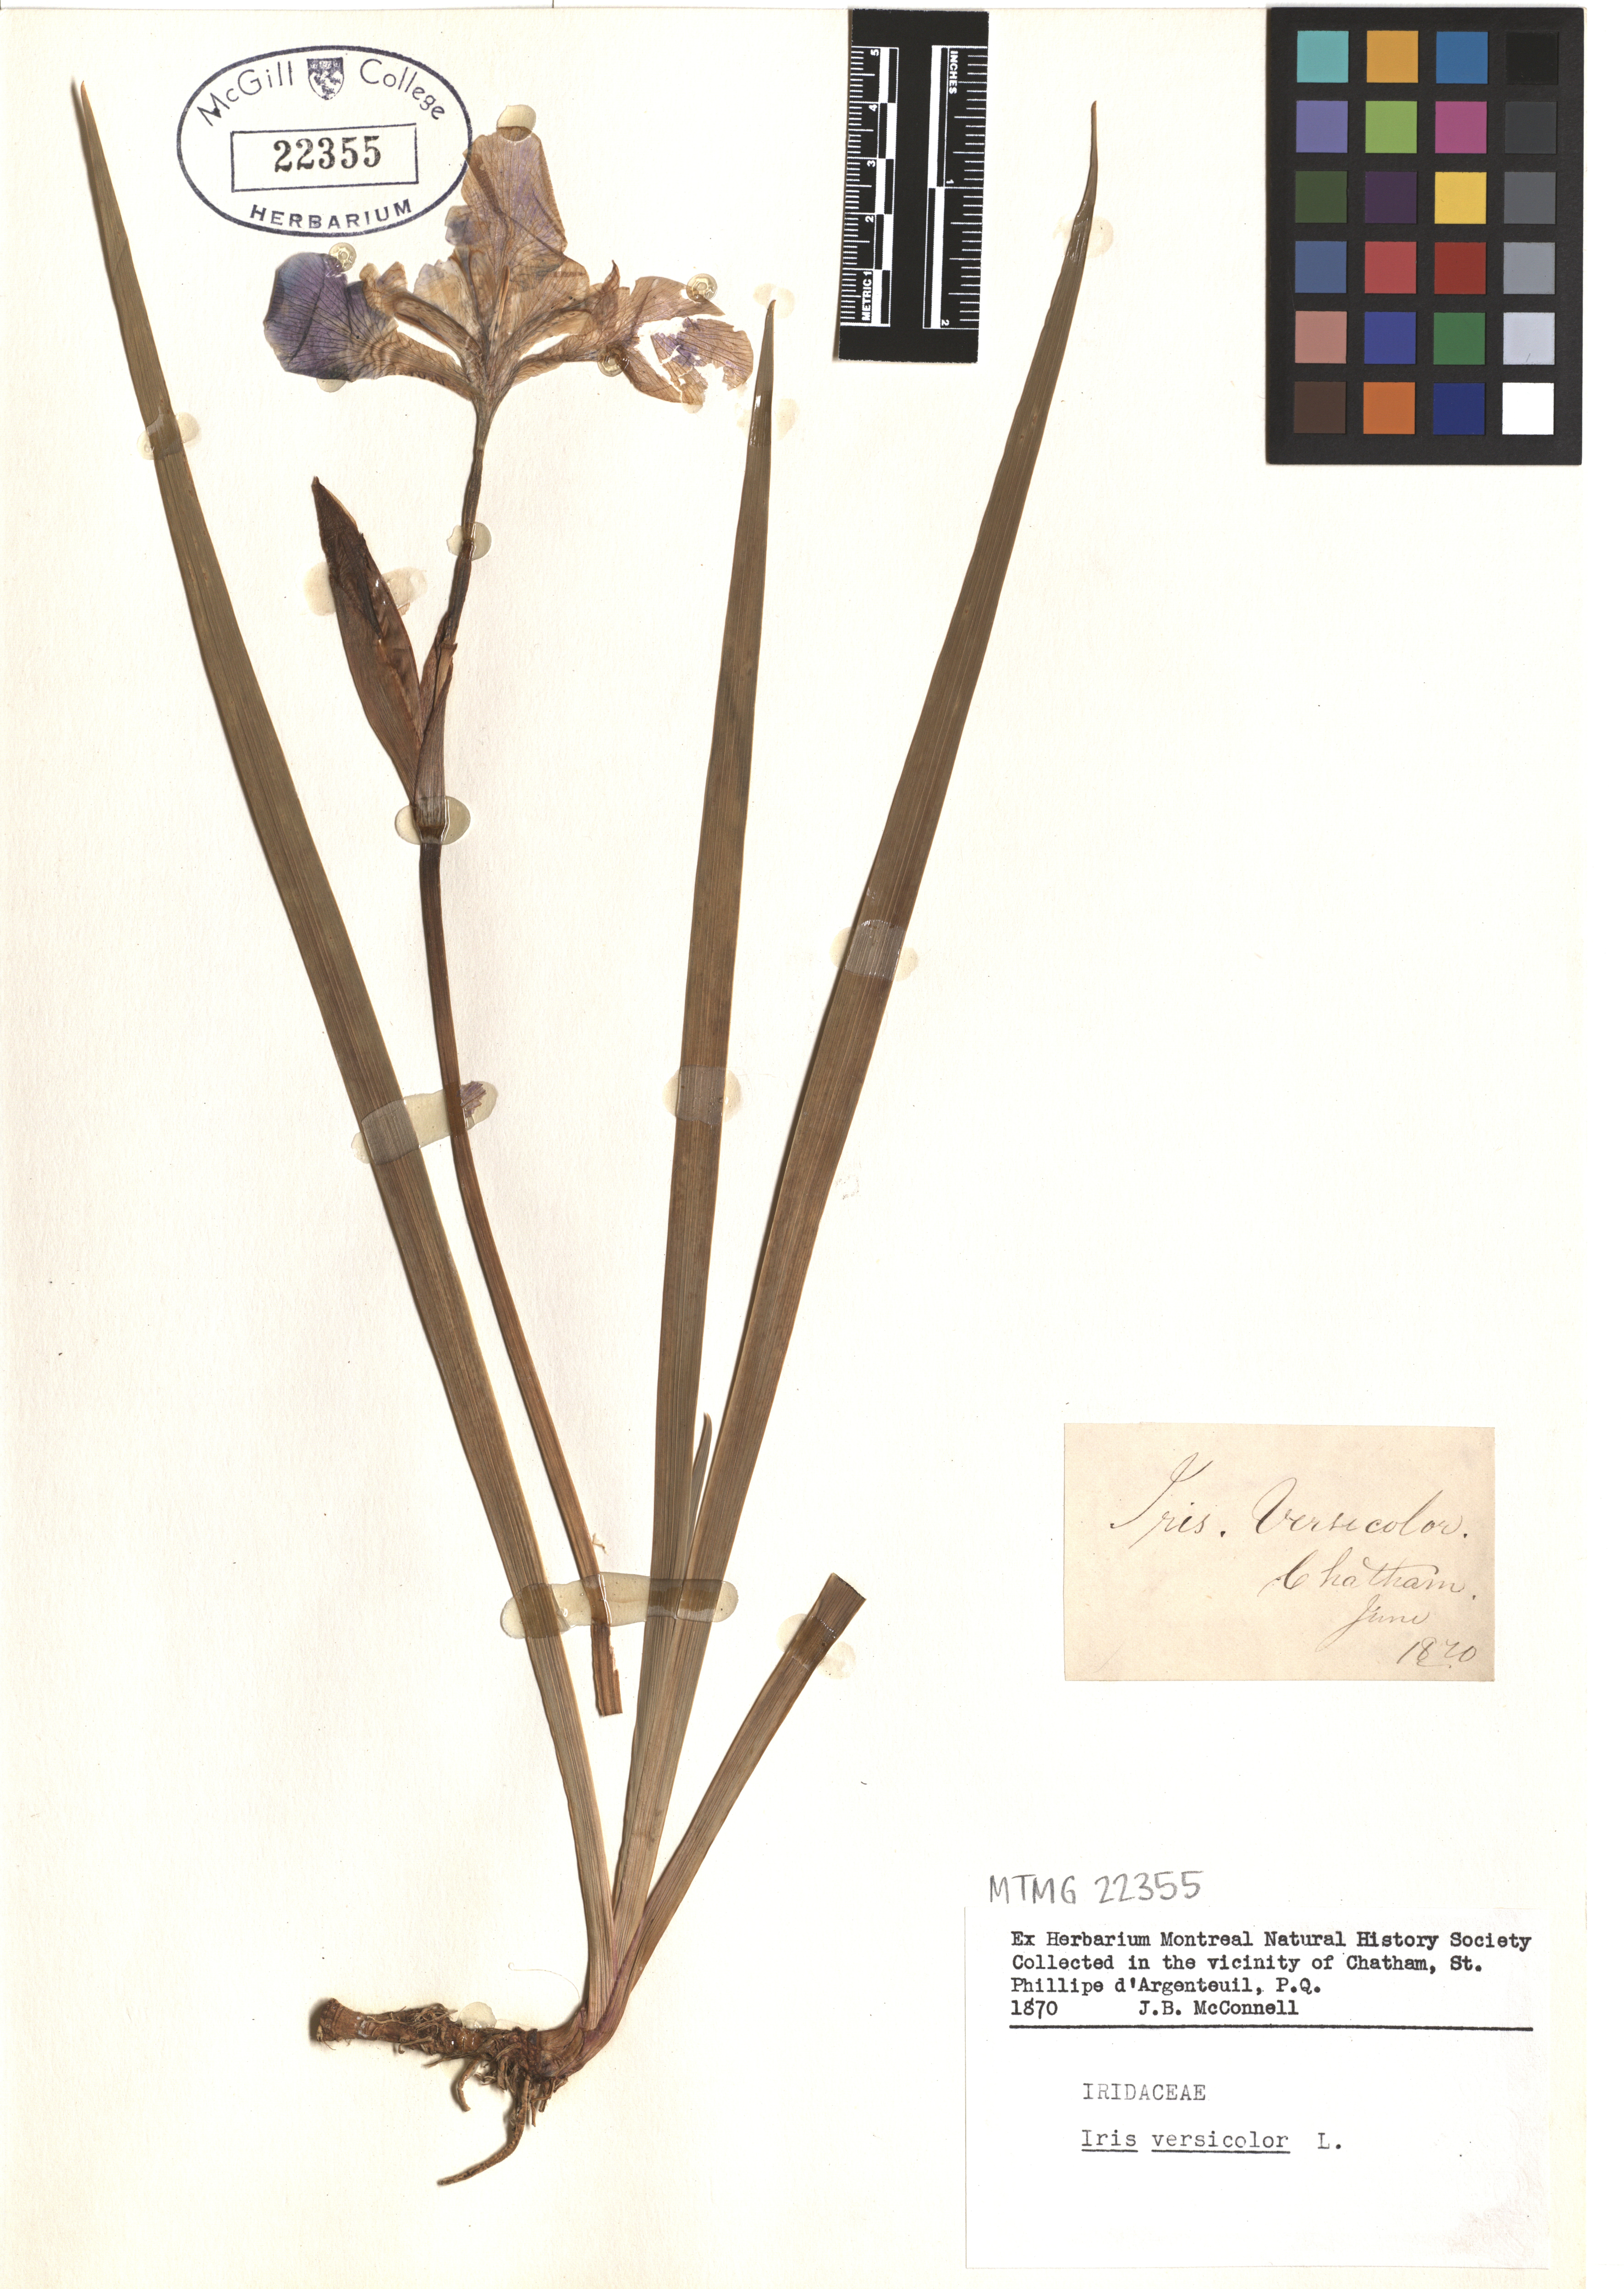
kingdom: Plantae
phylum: Tracheophyta
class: Liliopsida
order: Asparagales
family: Iridaceae
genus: Iris
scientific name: Iris versicolor
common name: Purple iris
